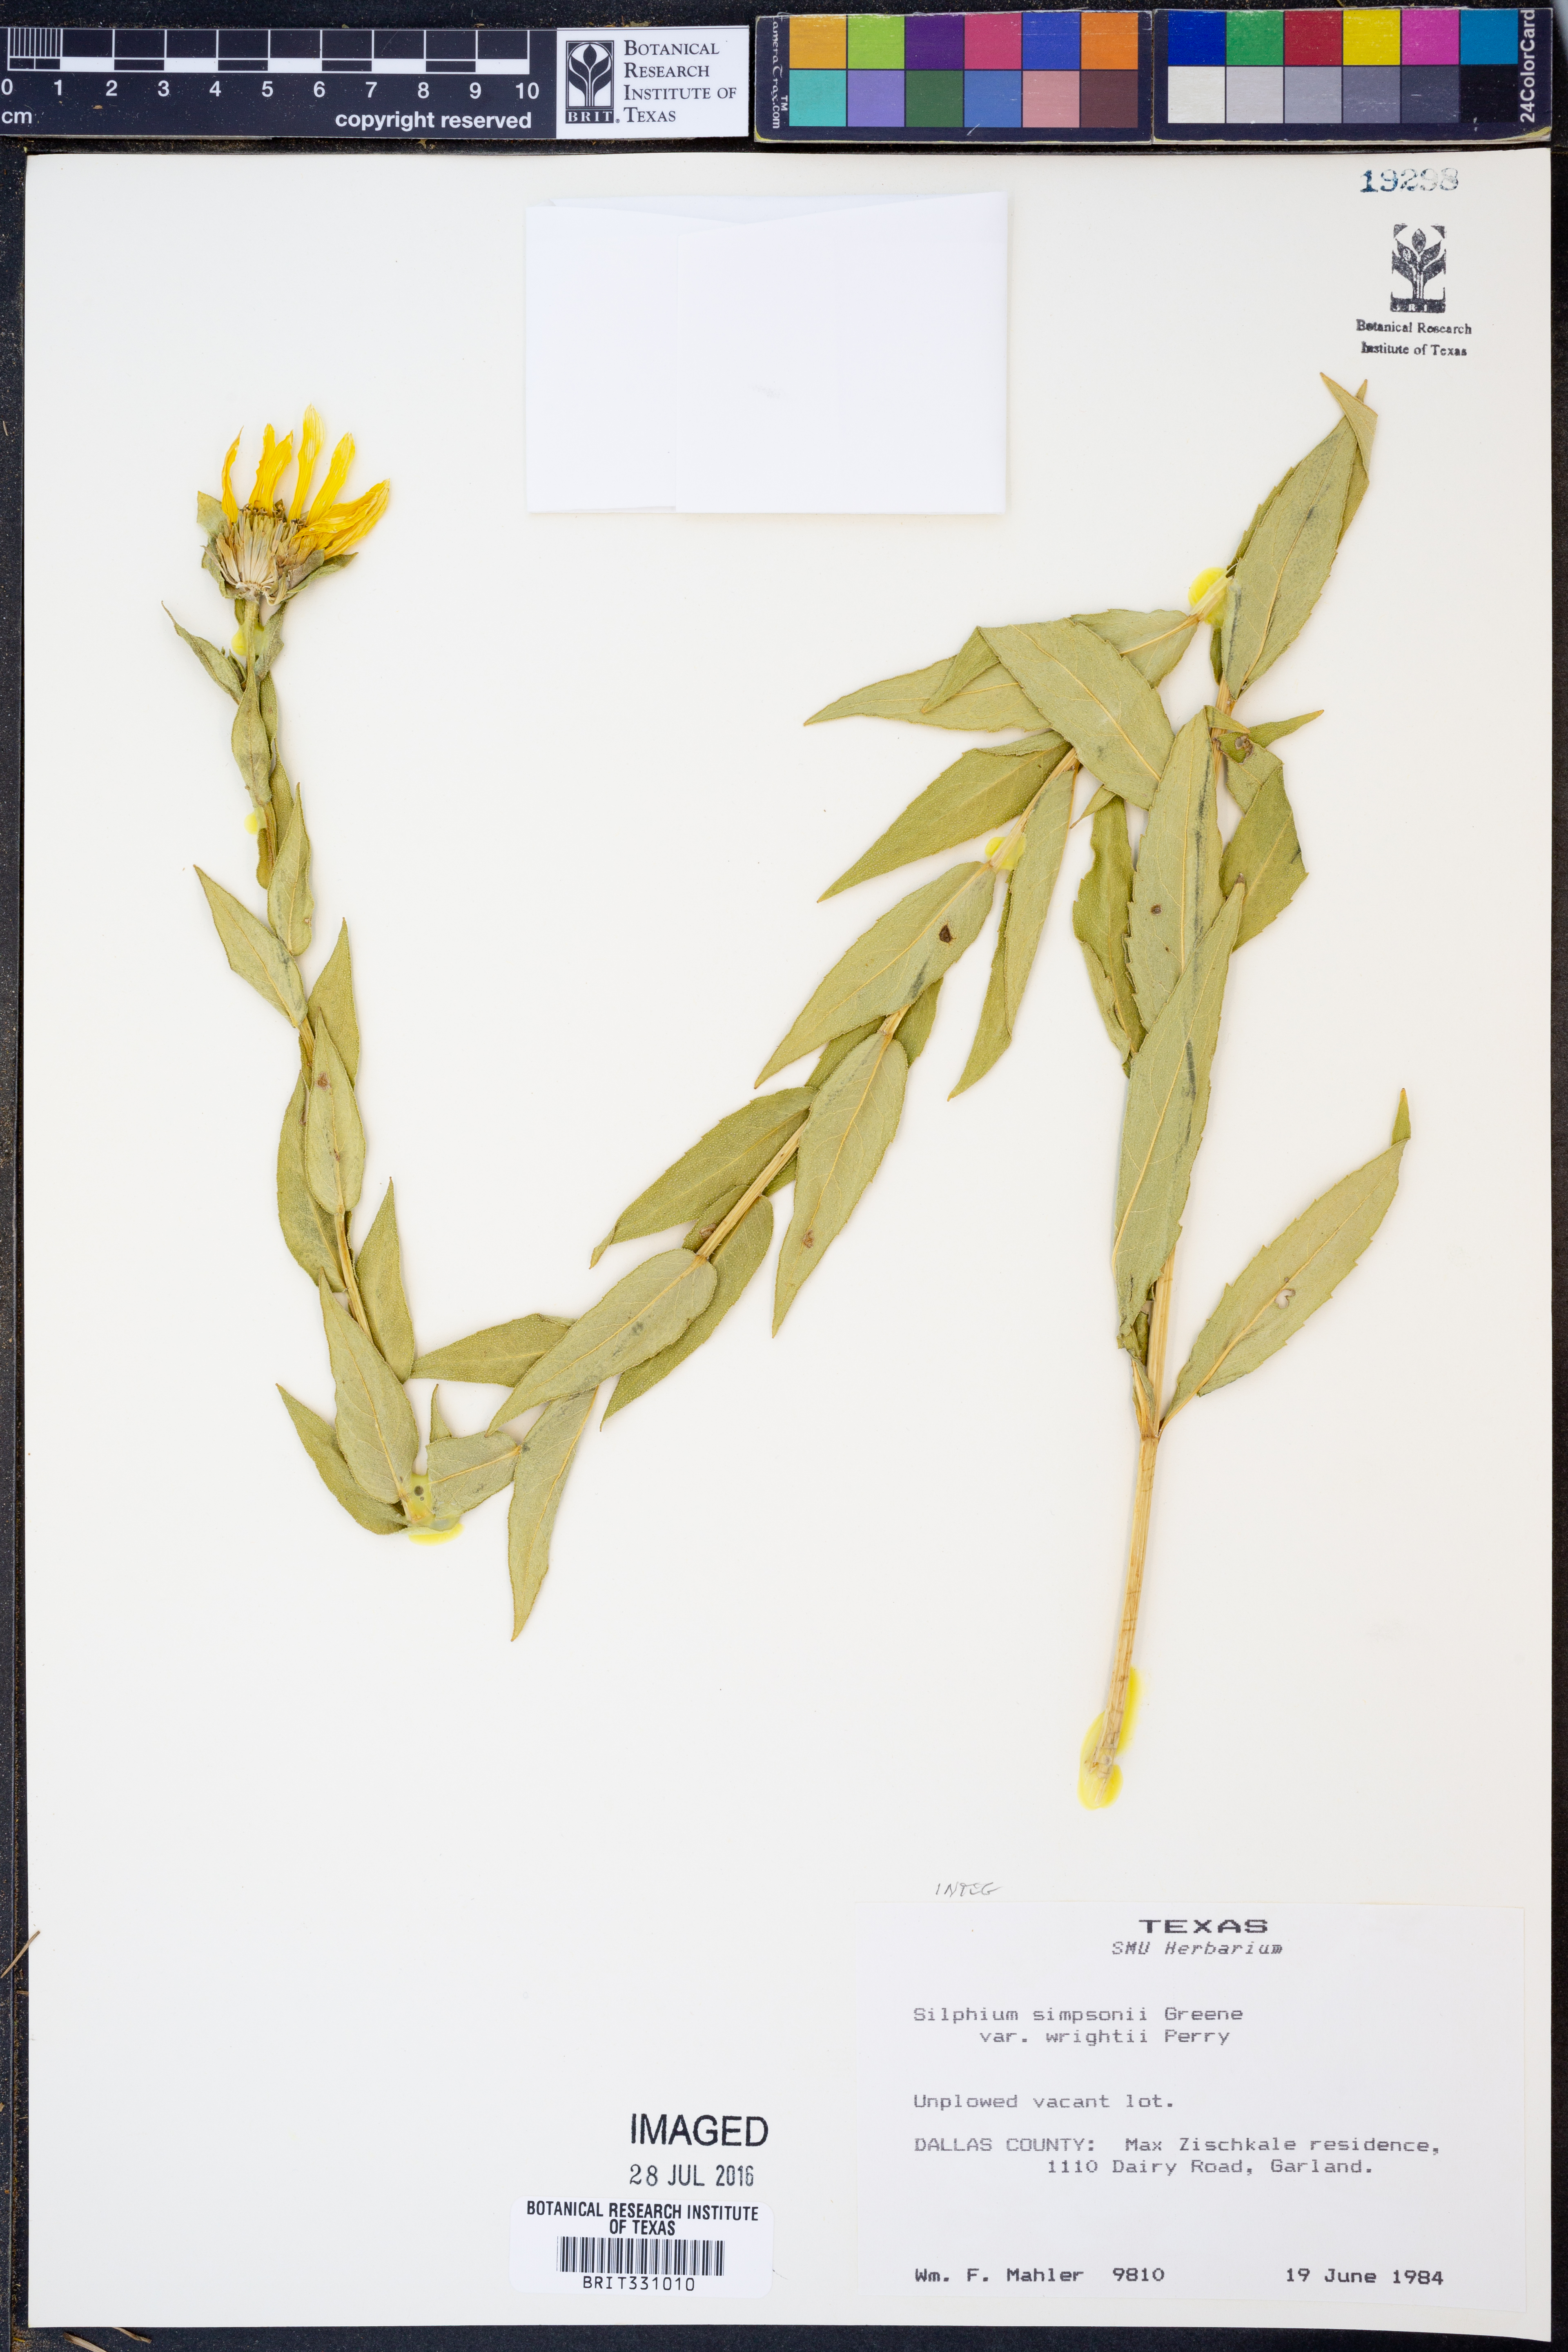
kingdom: Plantae
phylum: Tracheophyta
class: Magnoliopsida
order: Asterales
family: Asteraceae
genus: Silphium
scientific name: Silphium asteriscus
